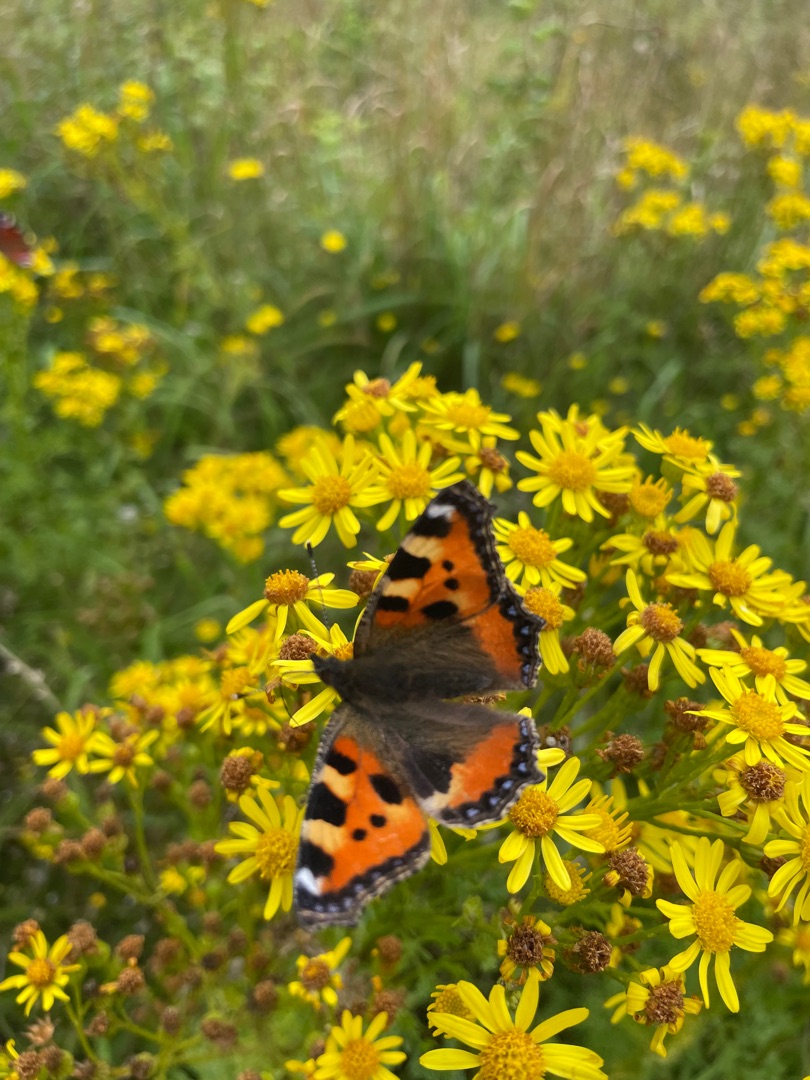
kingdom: Animalia
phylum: Arthropoda
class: Insecta
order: Lepidoptera
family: Nymphalidae
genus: Aglais
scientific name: Aglais urticae
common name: Nældens takvinge
